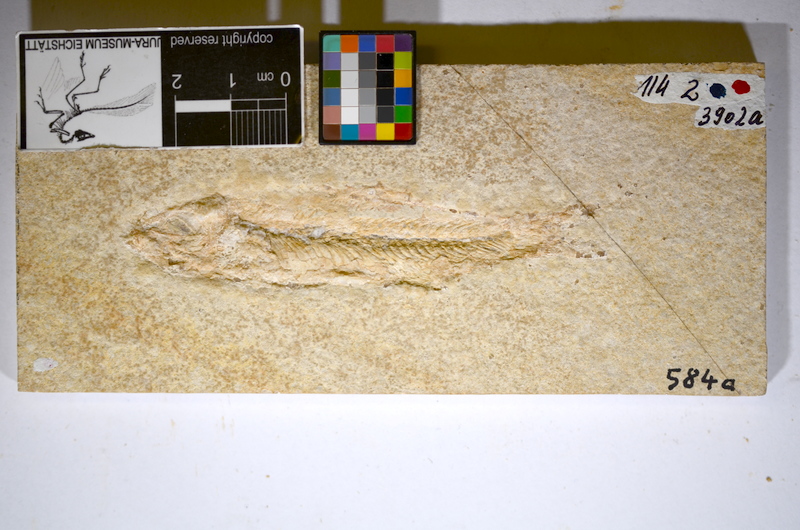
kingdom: Animalia
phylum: Chordata
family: Ascalaboidae
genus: Ascalabos
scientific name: Ascalabos voithii
